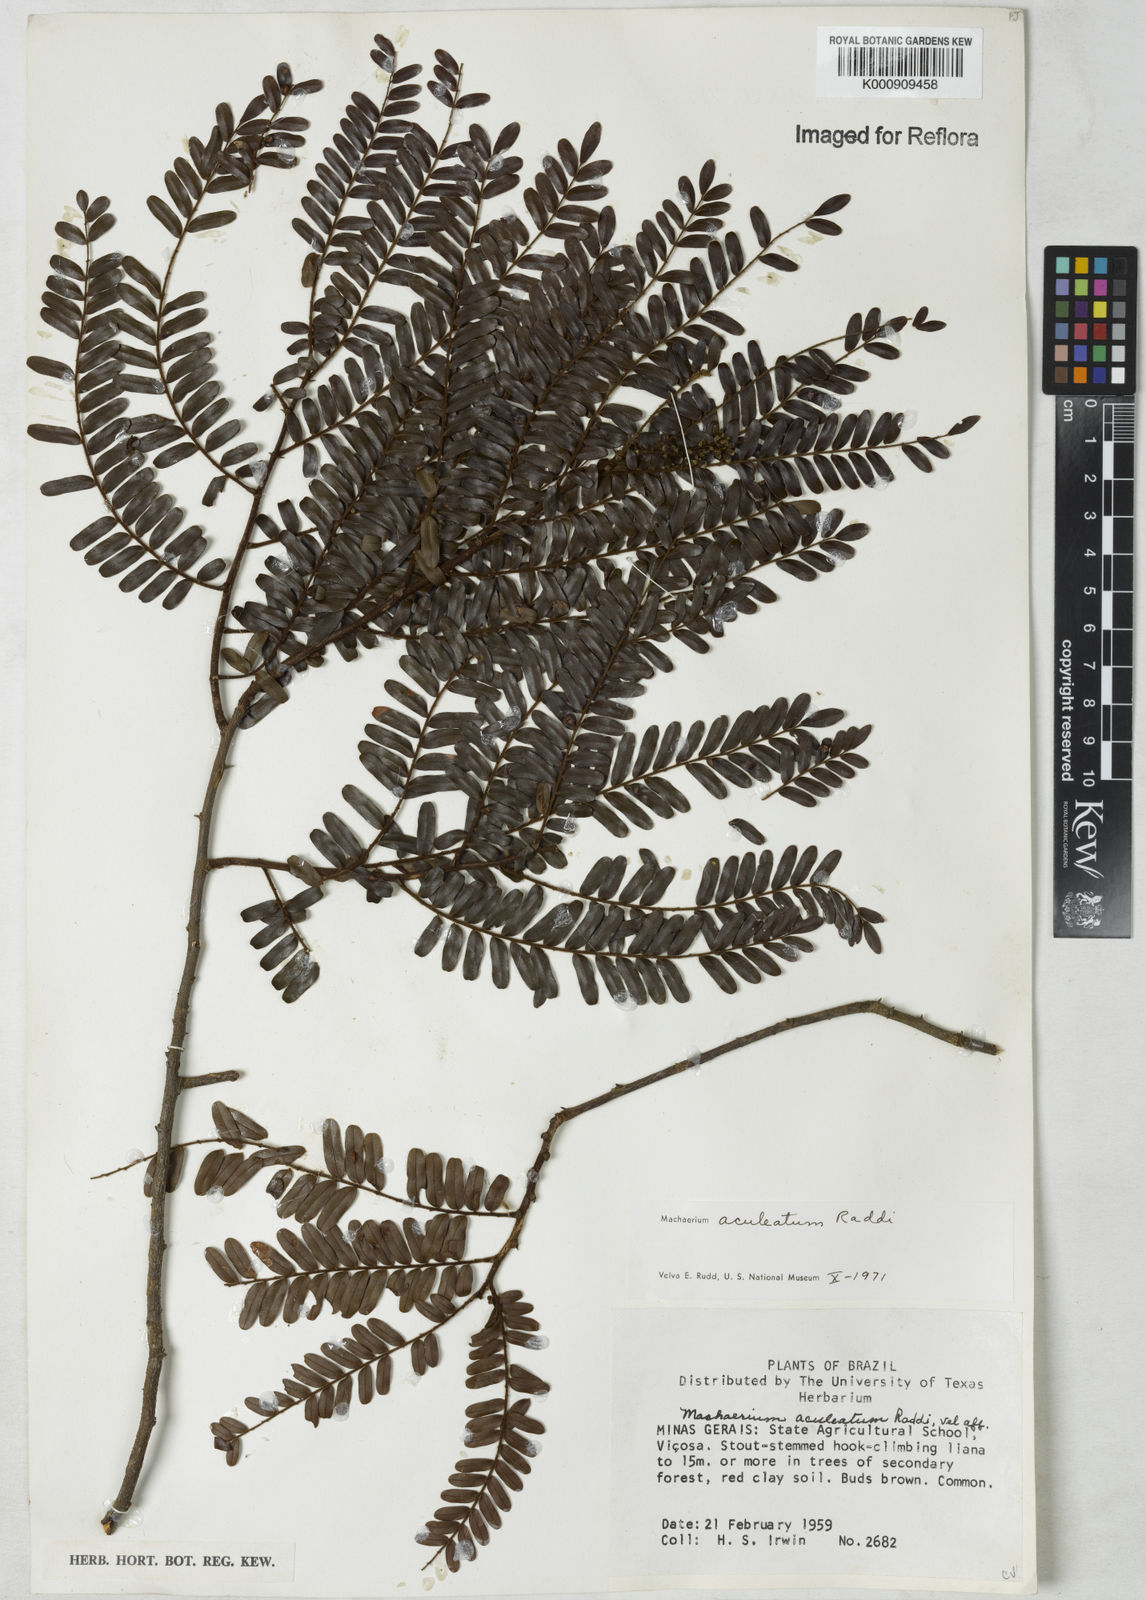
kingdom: Plantae
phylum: Tracheophyta
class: Magnoliopsida
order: Fabales
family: Fabaceae
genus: Machaerium
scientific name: Machaerium aculeatum
